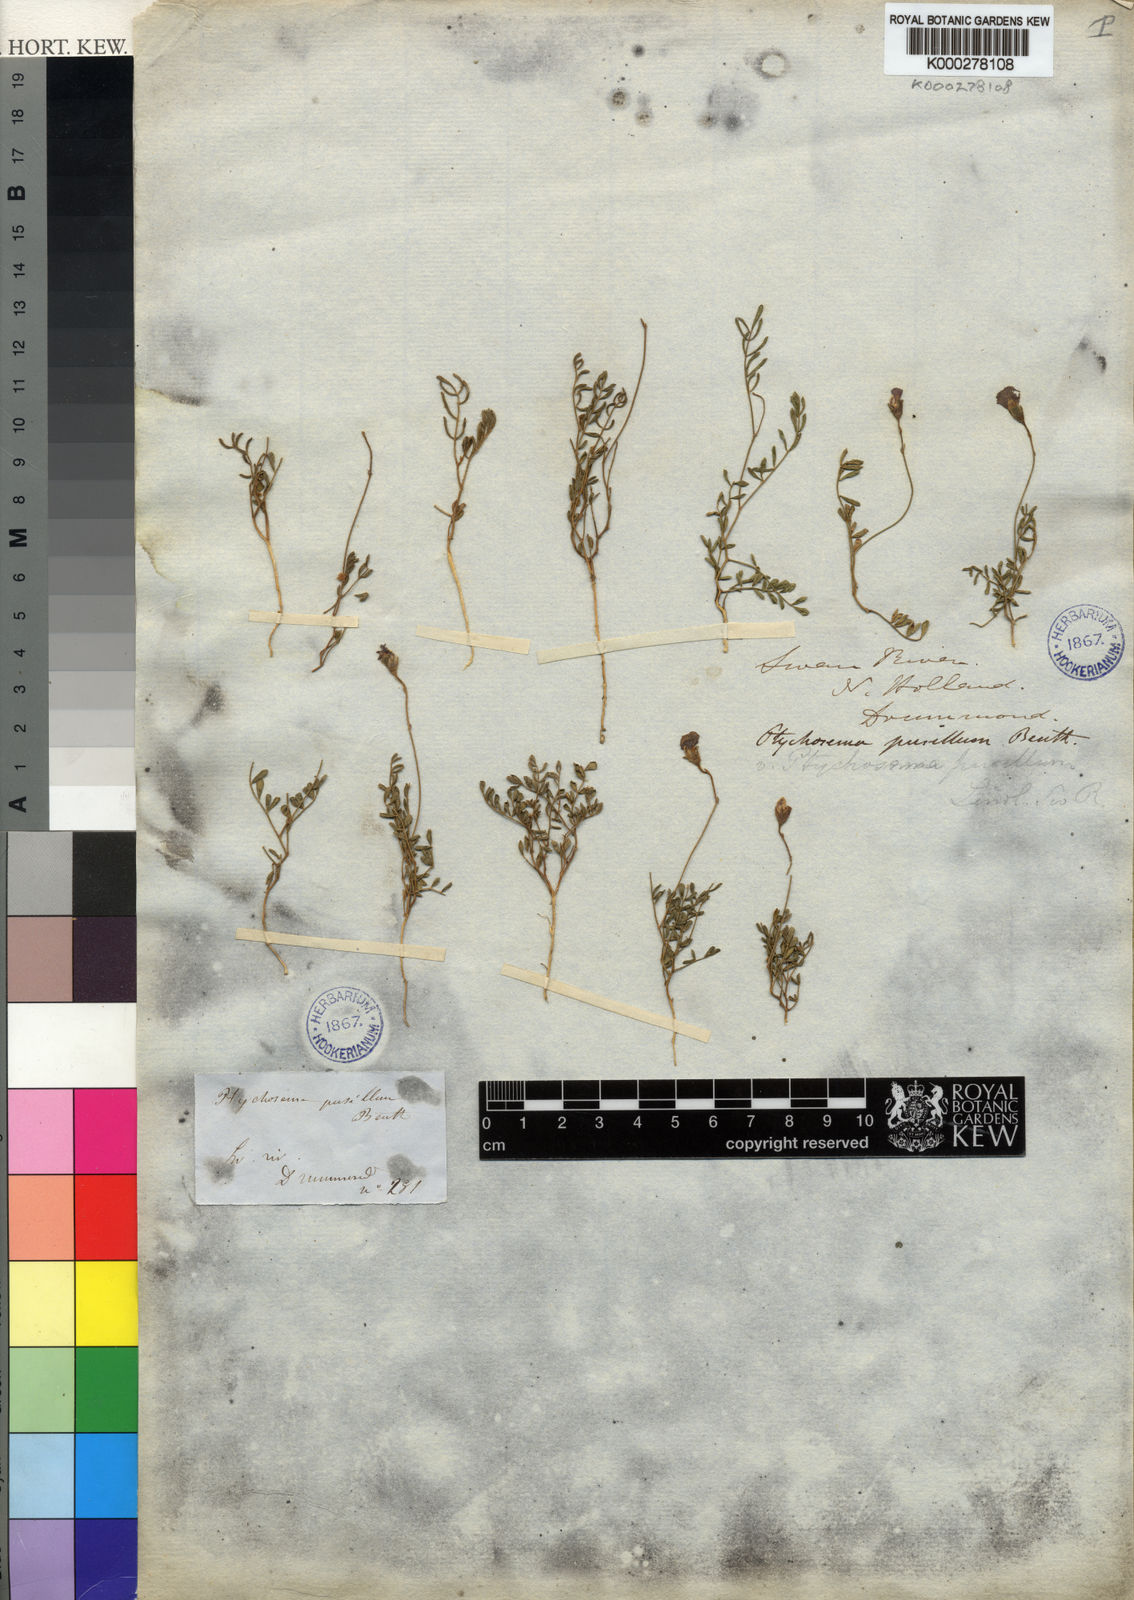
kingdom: Plantae
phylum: Tracheophyta
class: Magnoliopsida
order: Fabales
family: Fabaceae
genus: Ptychosema
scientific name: Ptychosema pusillum
